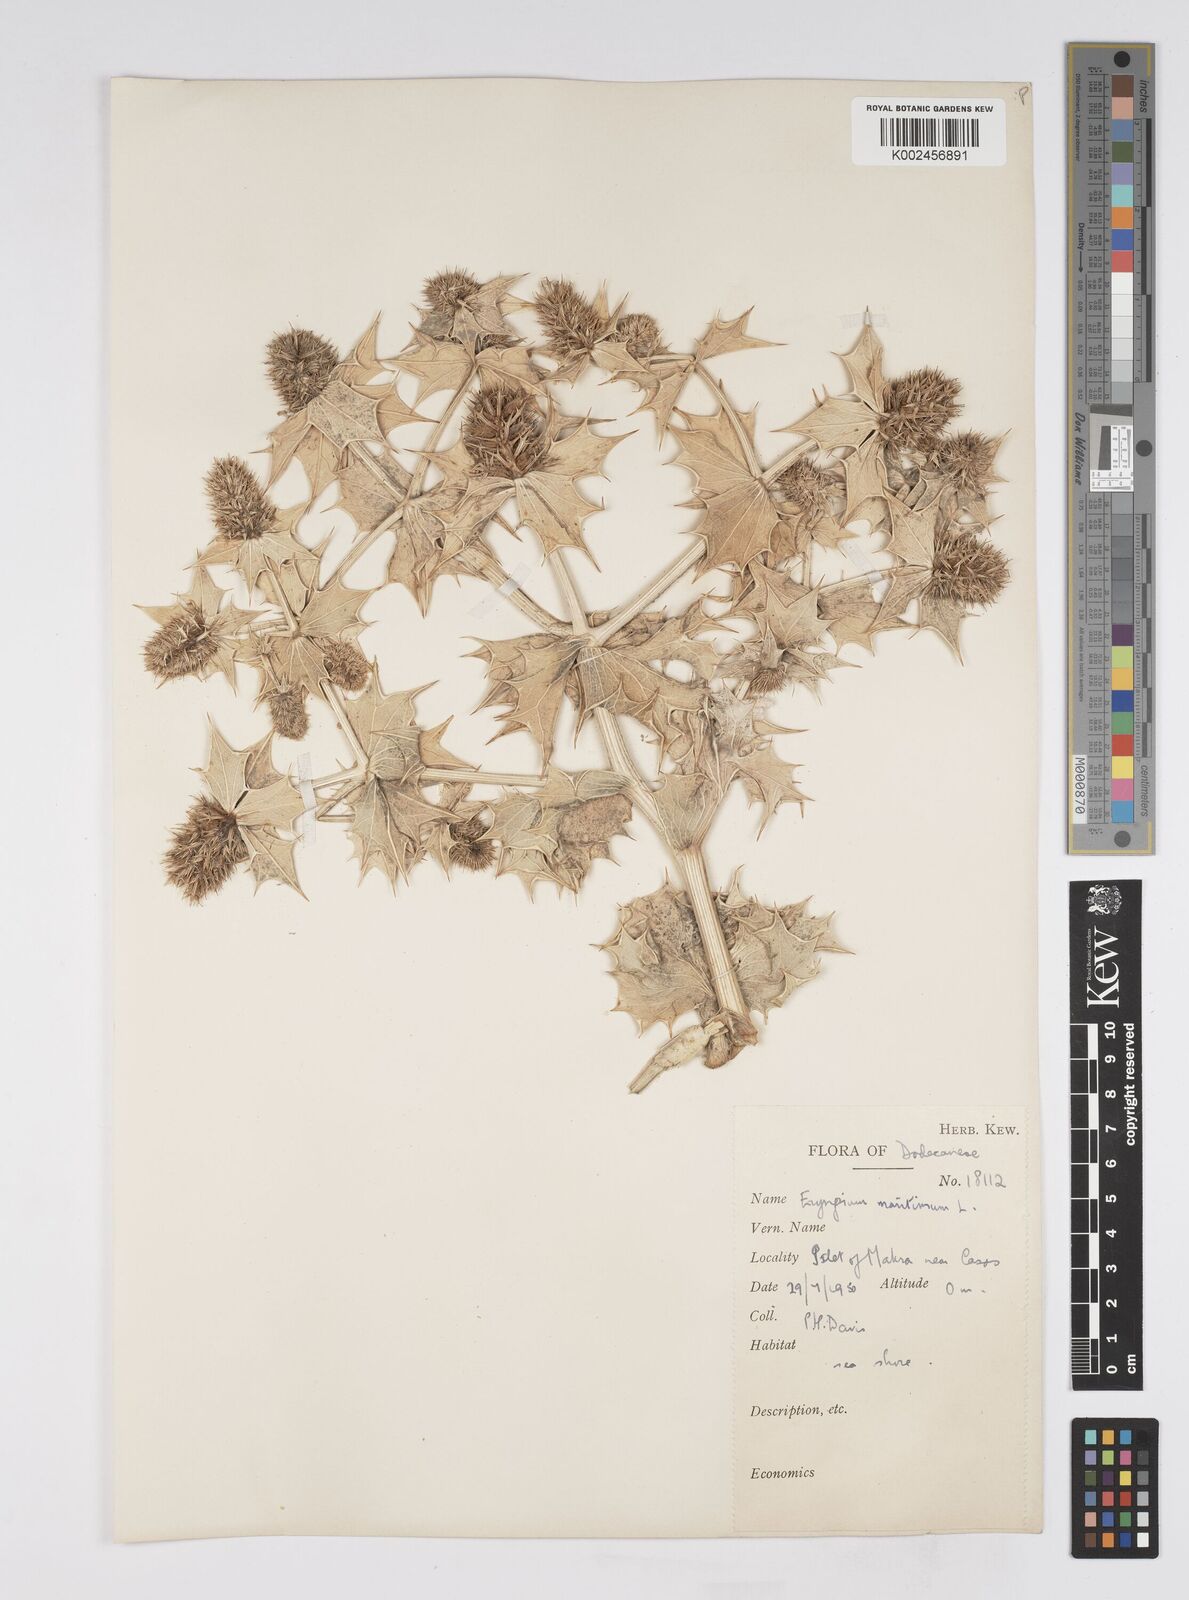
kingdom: Plantae
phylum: Tracheophyta
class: Magnoliopsida
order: Apiales
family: Apiaceae
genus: Eryngium
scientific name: Eryngium maritimum
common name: Sea-holly
